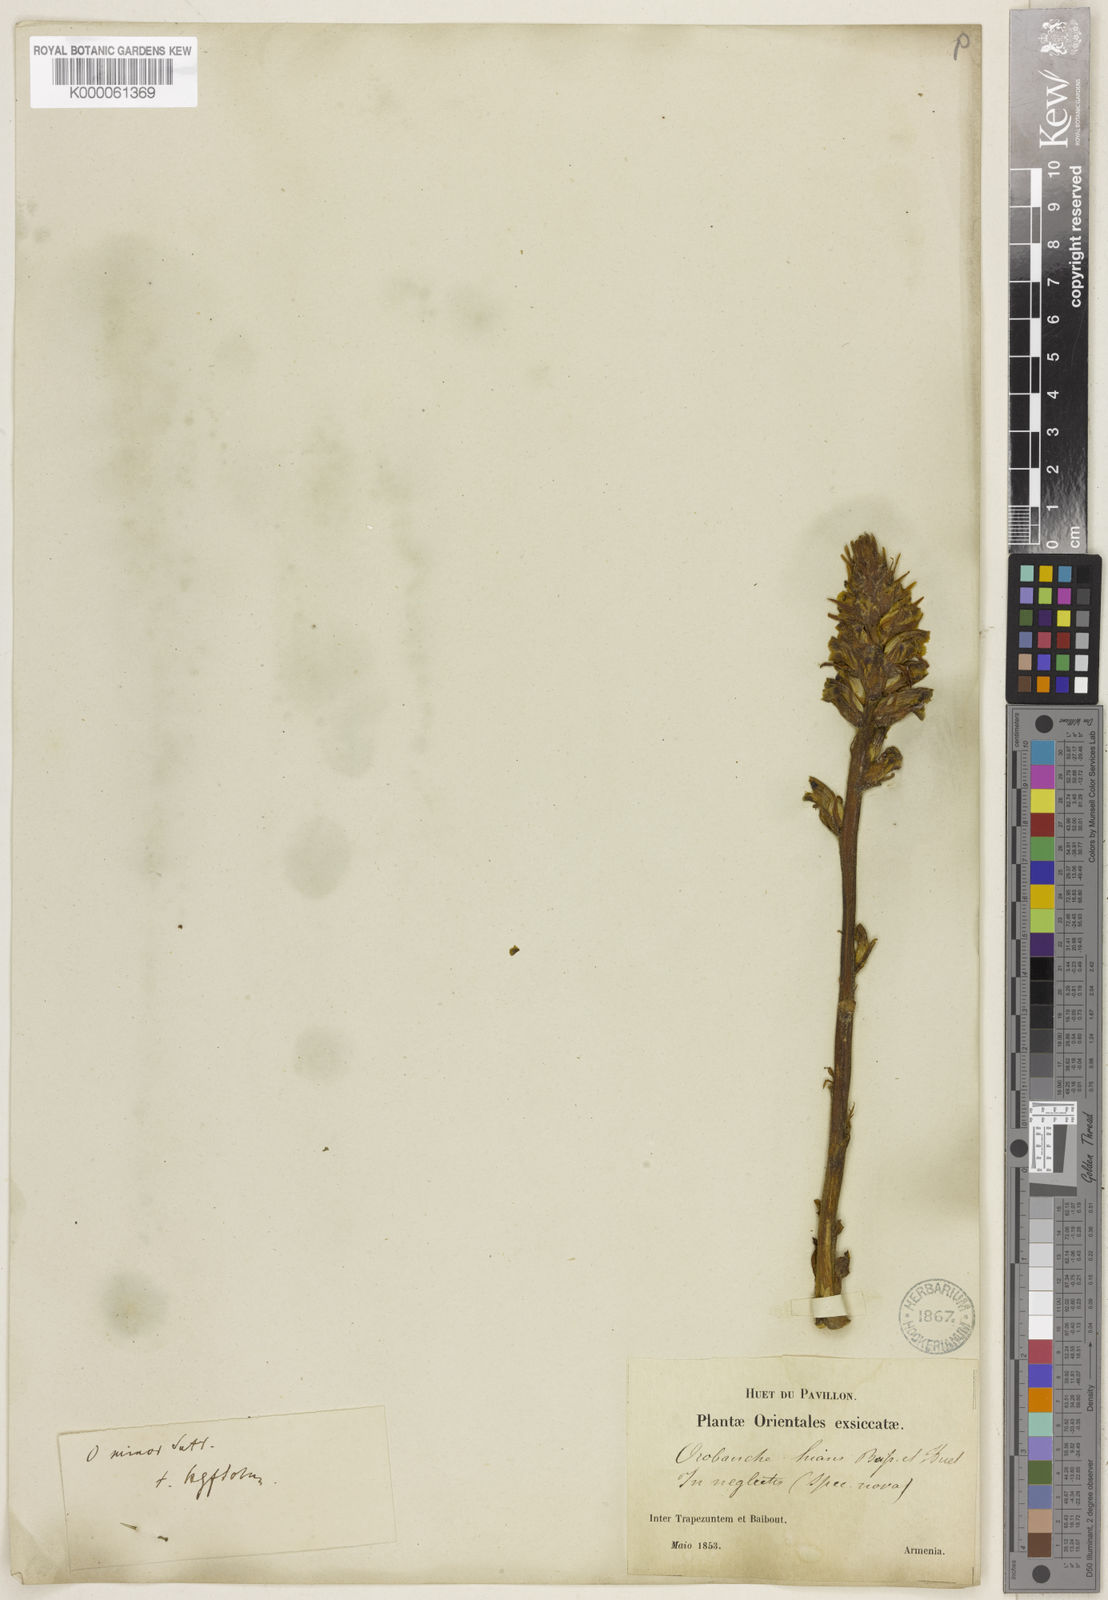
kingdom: Plantae
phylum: Tracheophyta
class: Magnoliopsida
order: Lamiales
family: Orobanchaceae
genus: Orobanche
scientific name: Orobanche
